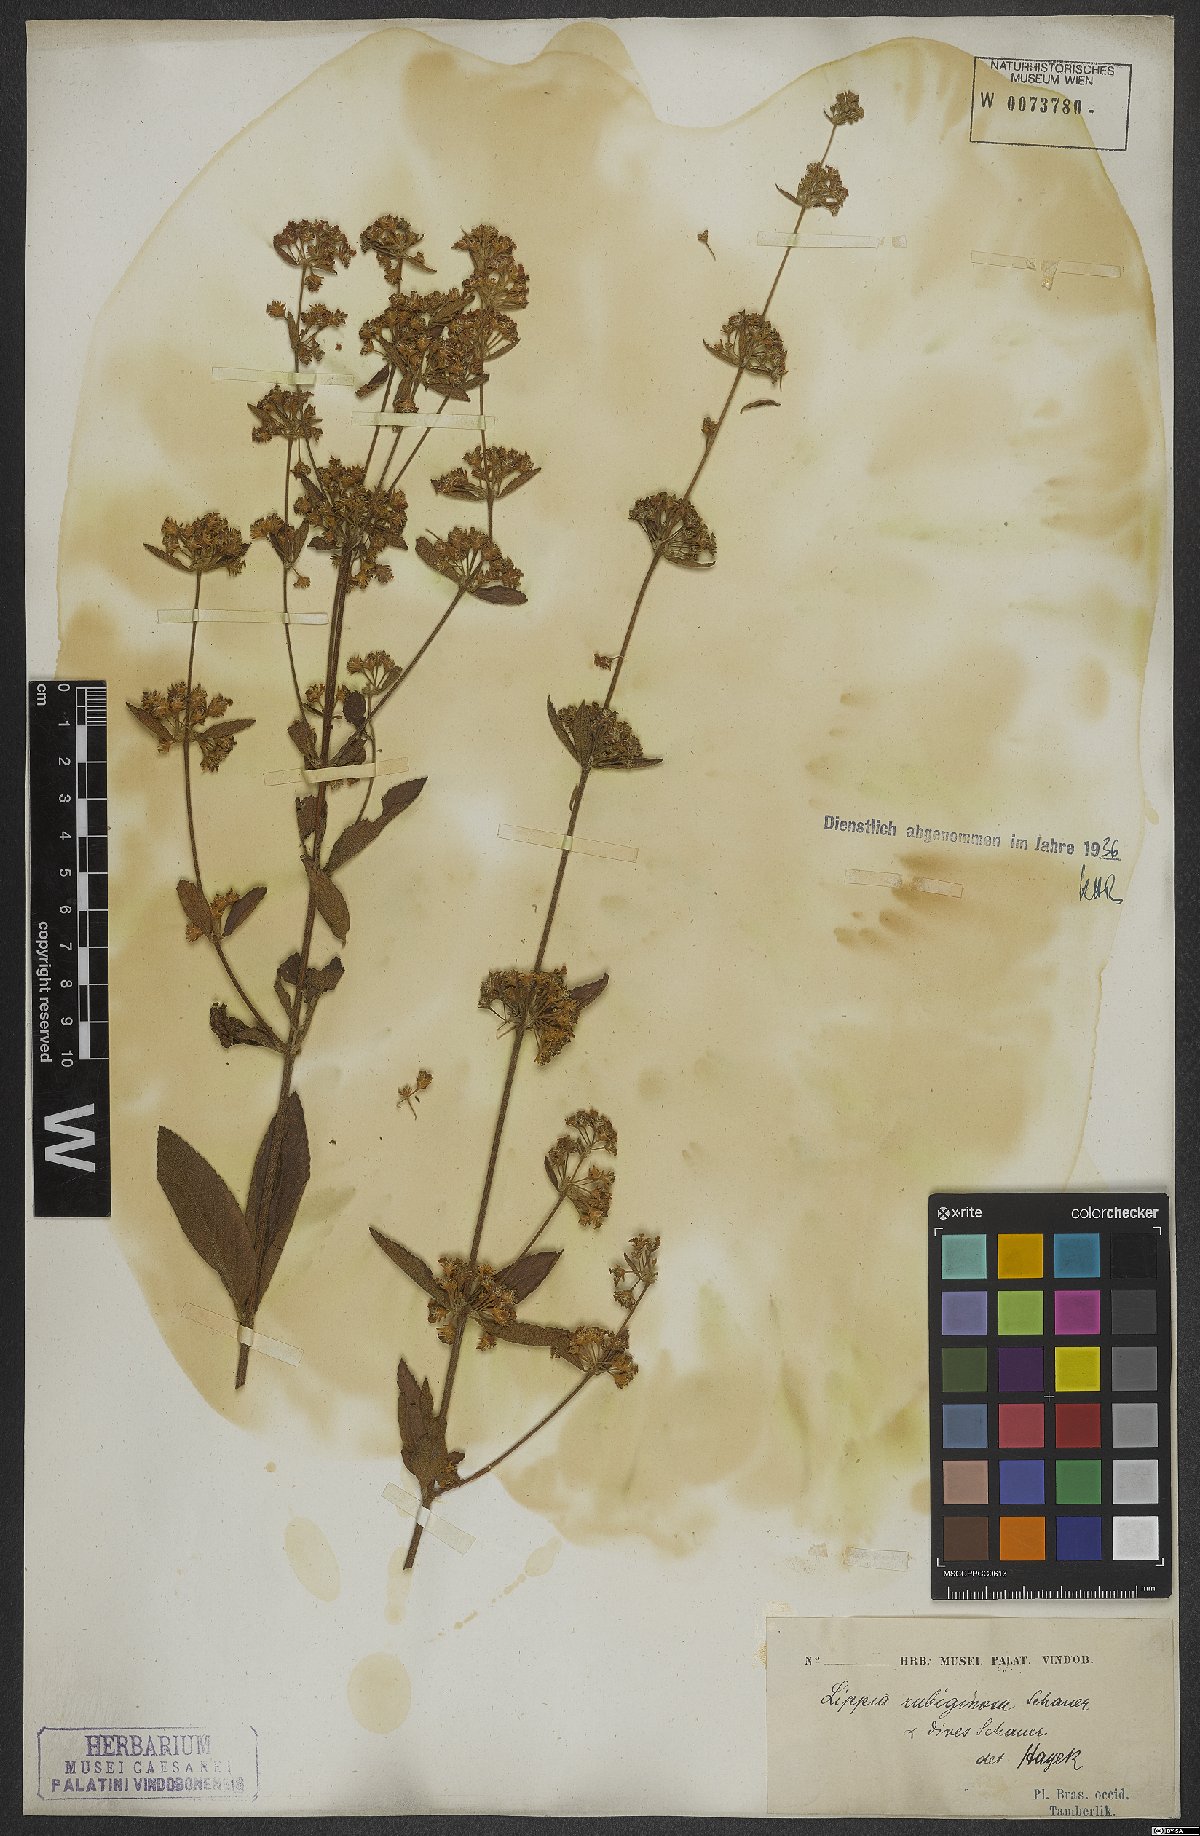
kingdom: Plantae
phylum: Tracheophyta
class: Magnoliopsida
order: Lamiales
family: Verbenaceae
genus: Lippia
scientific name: Lippia origanoides
